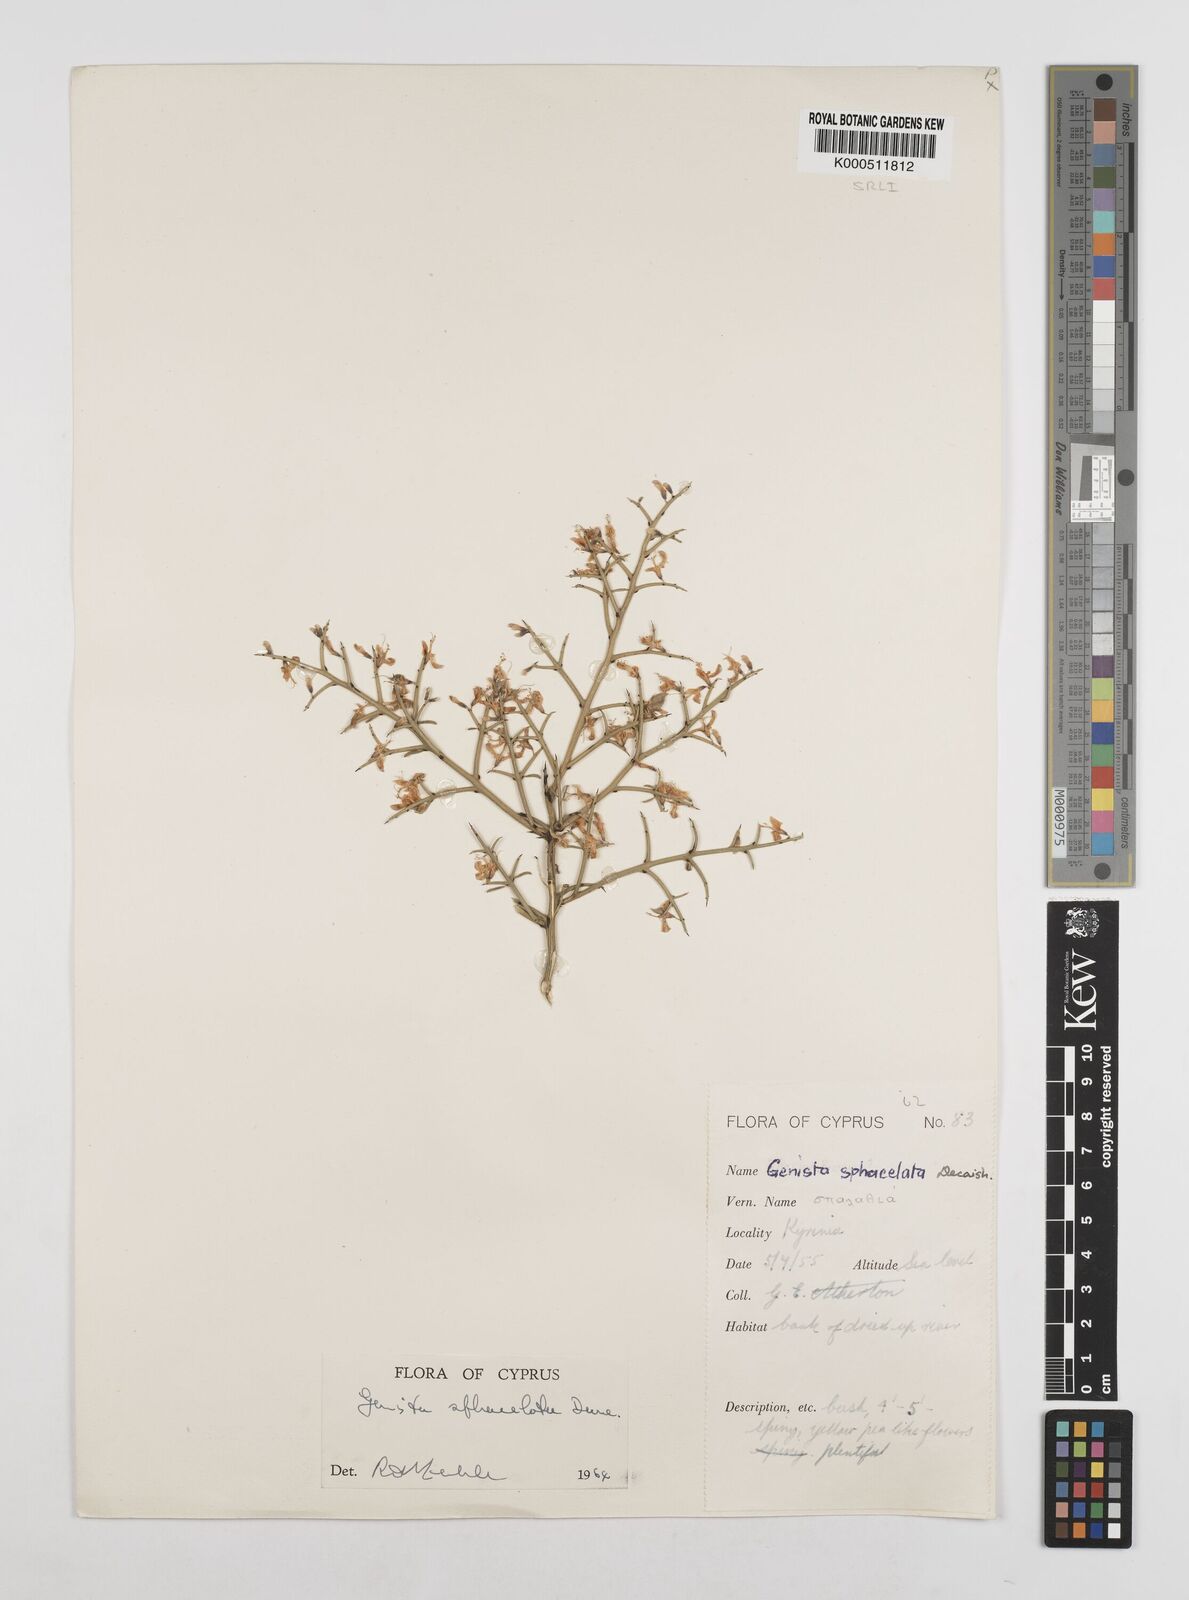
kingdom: Plantae
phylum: Tracheophyta
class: Magnoliopsida
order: Fabales
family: Fabaceae
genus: Genista
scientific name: Genista
